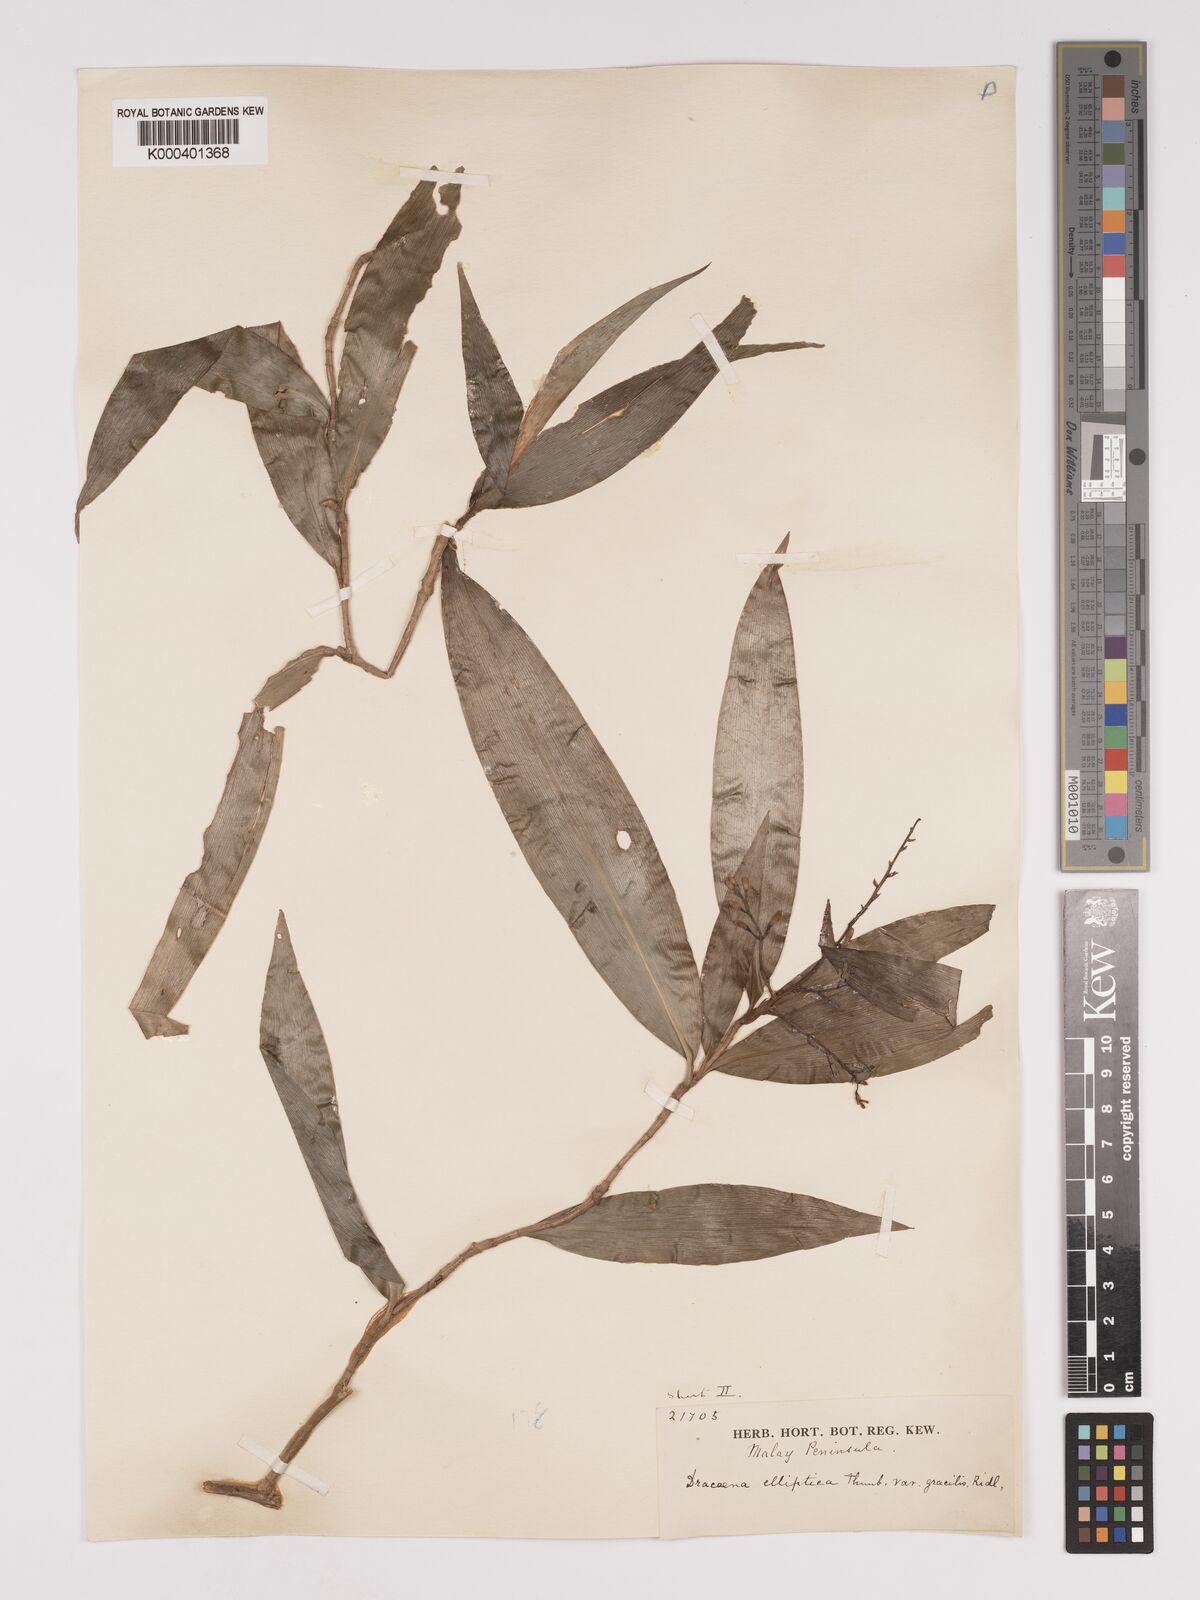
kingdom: Plantae
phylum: Tracheophyta
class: Liliopsida
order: Asparagales
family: Asparagaceae
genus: Dracaena
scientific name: Dracaena elliptica
